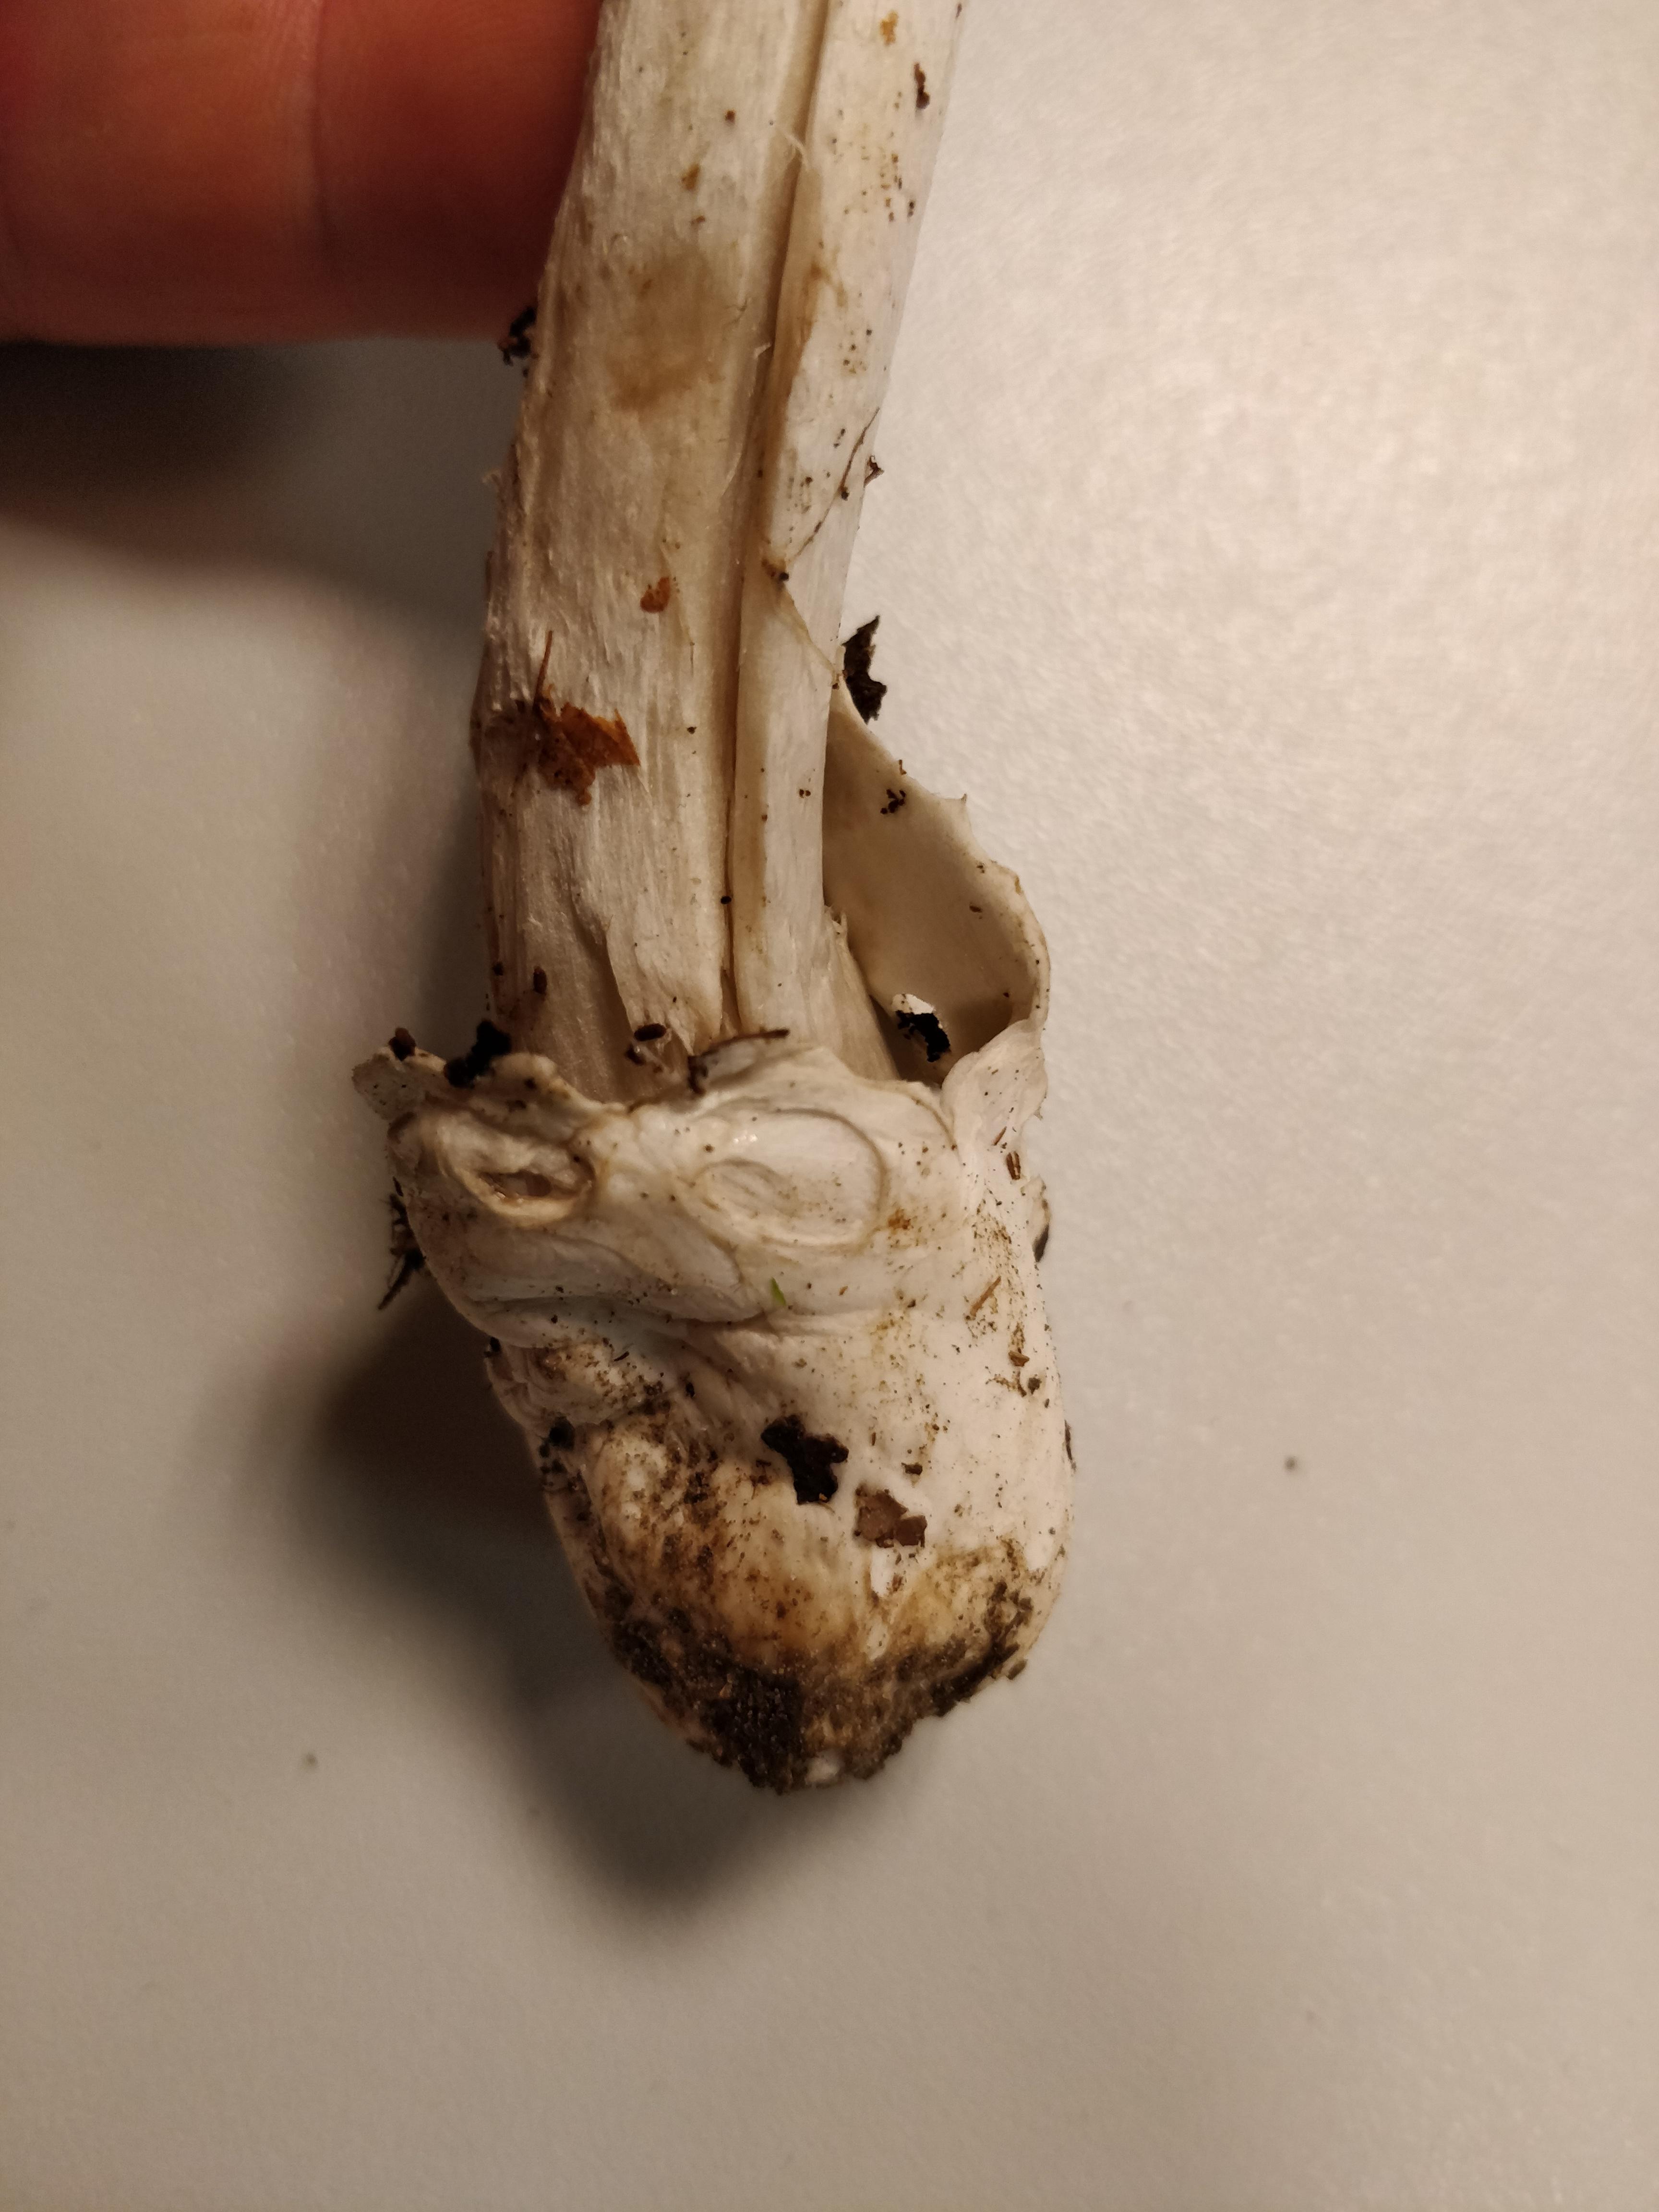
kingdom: Fungi
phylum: Basidiomycota
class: Agaricomycetes
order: Agaricales
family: Amanitaceae
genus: Amanita
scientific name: Amanita
